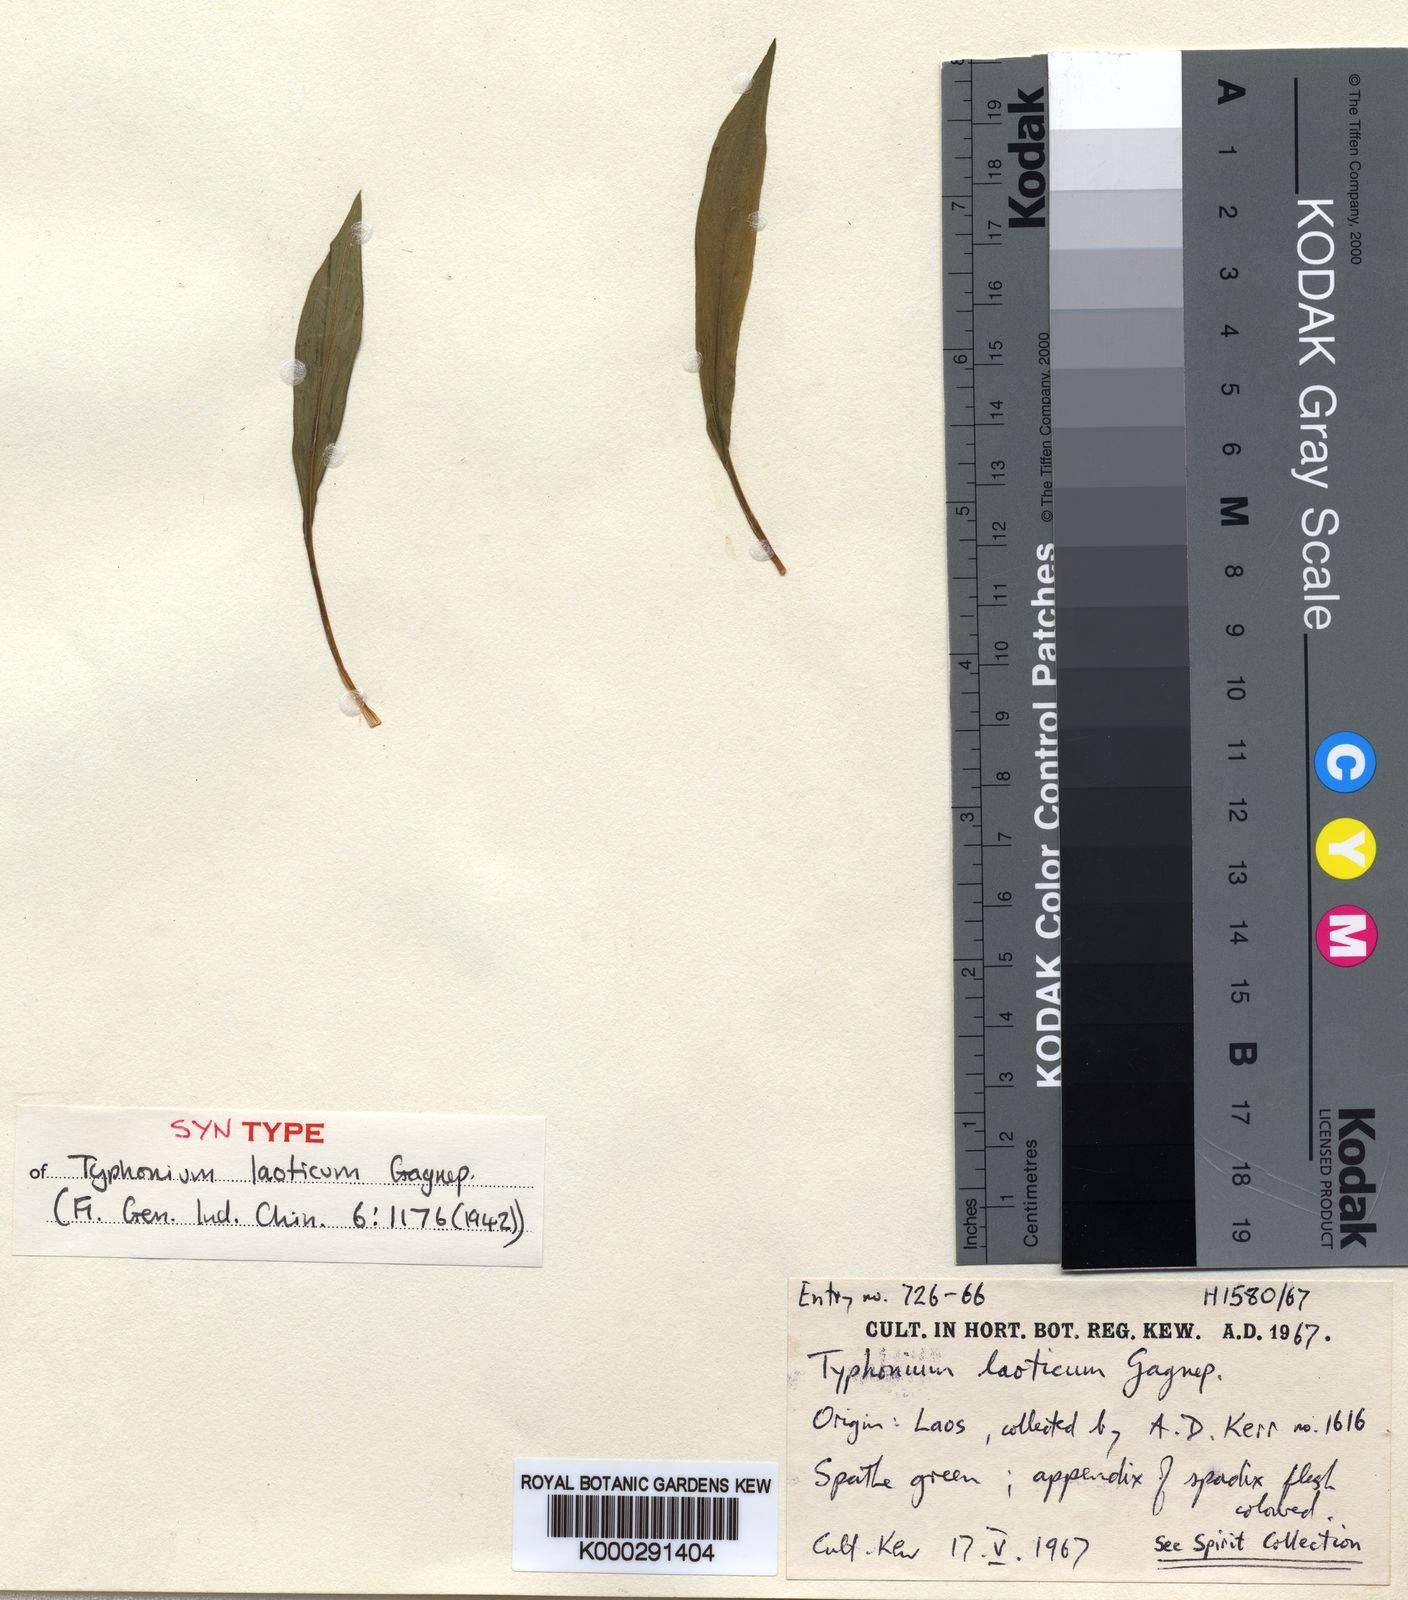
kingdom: Plantae
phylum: Tracheophyta
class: Liliopsida
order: Alismatales
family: Araceae
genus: Typhonium
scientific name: Typhonium laoticum
